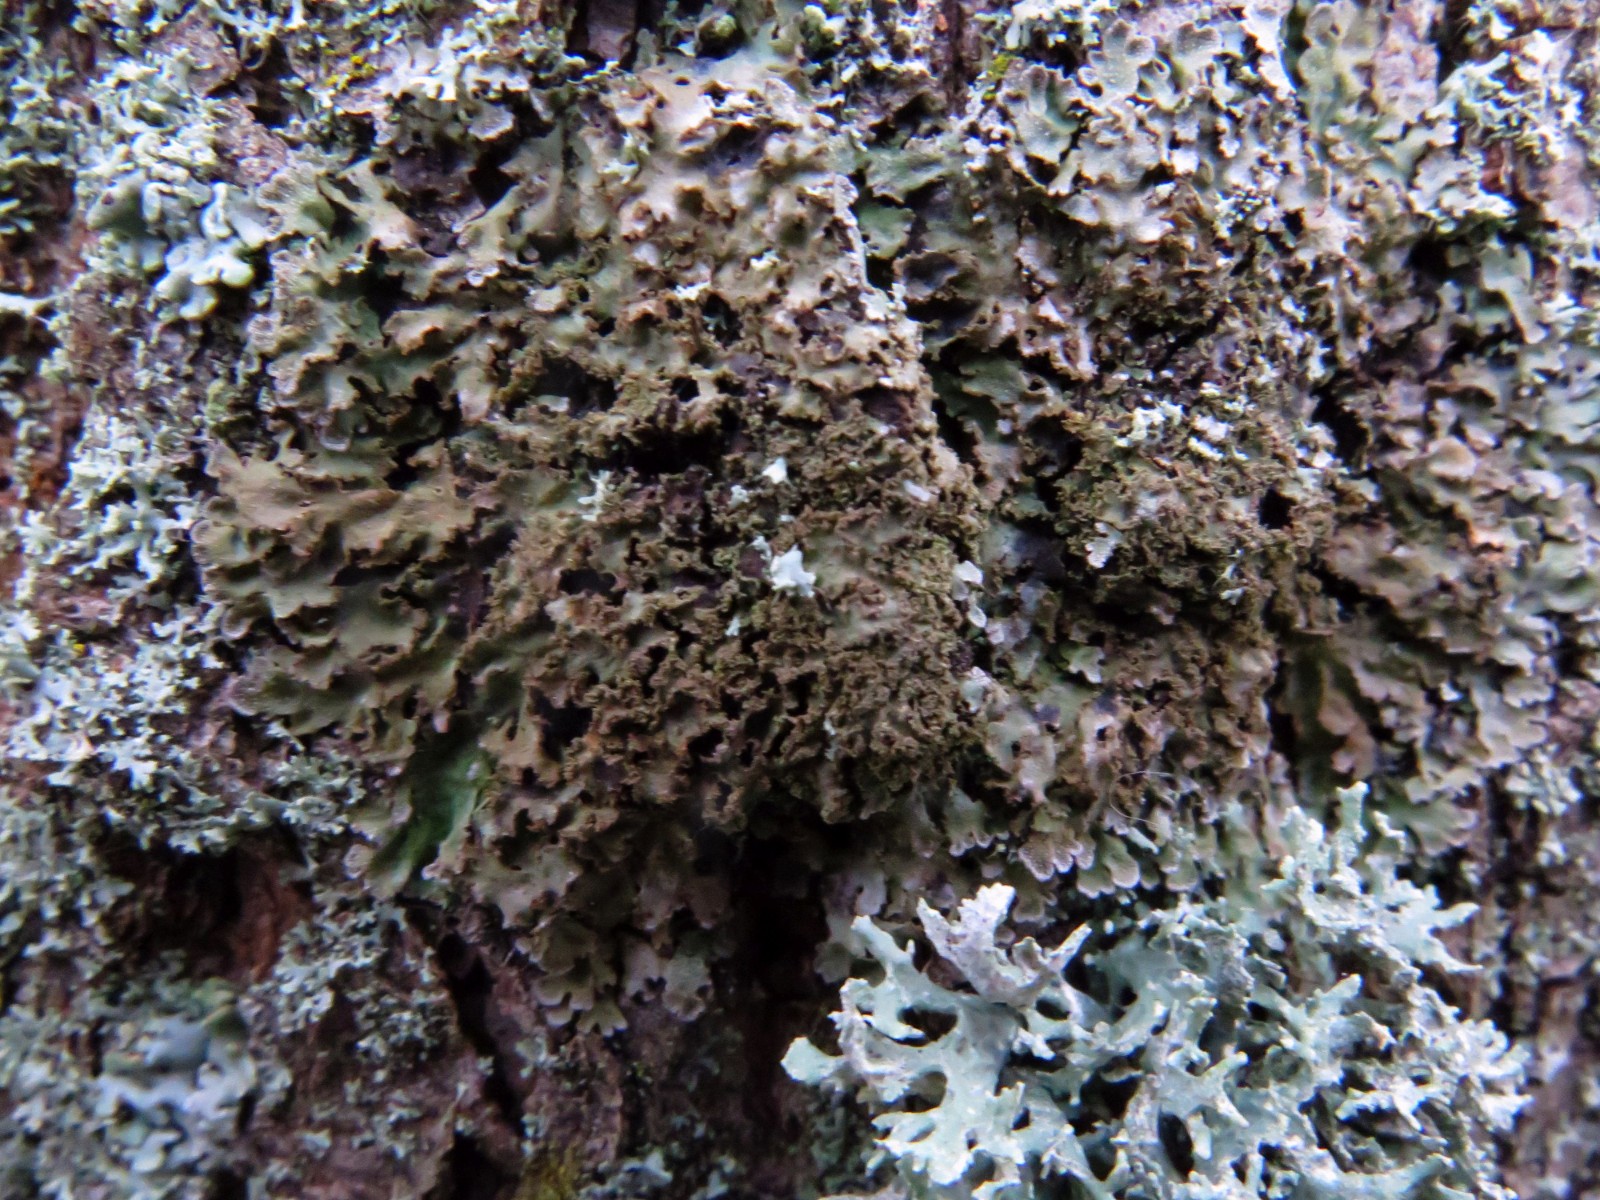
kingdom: Fungi
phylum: Ascomycota
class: Lecanoromycetes
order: Caliciales
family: Physciaceae
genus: Poeltonia
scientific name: Poeltonia grisea
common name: hvidgrå dugrosetlav
